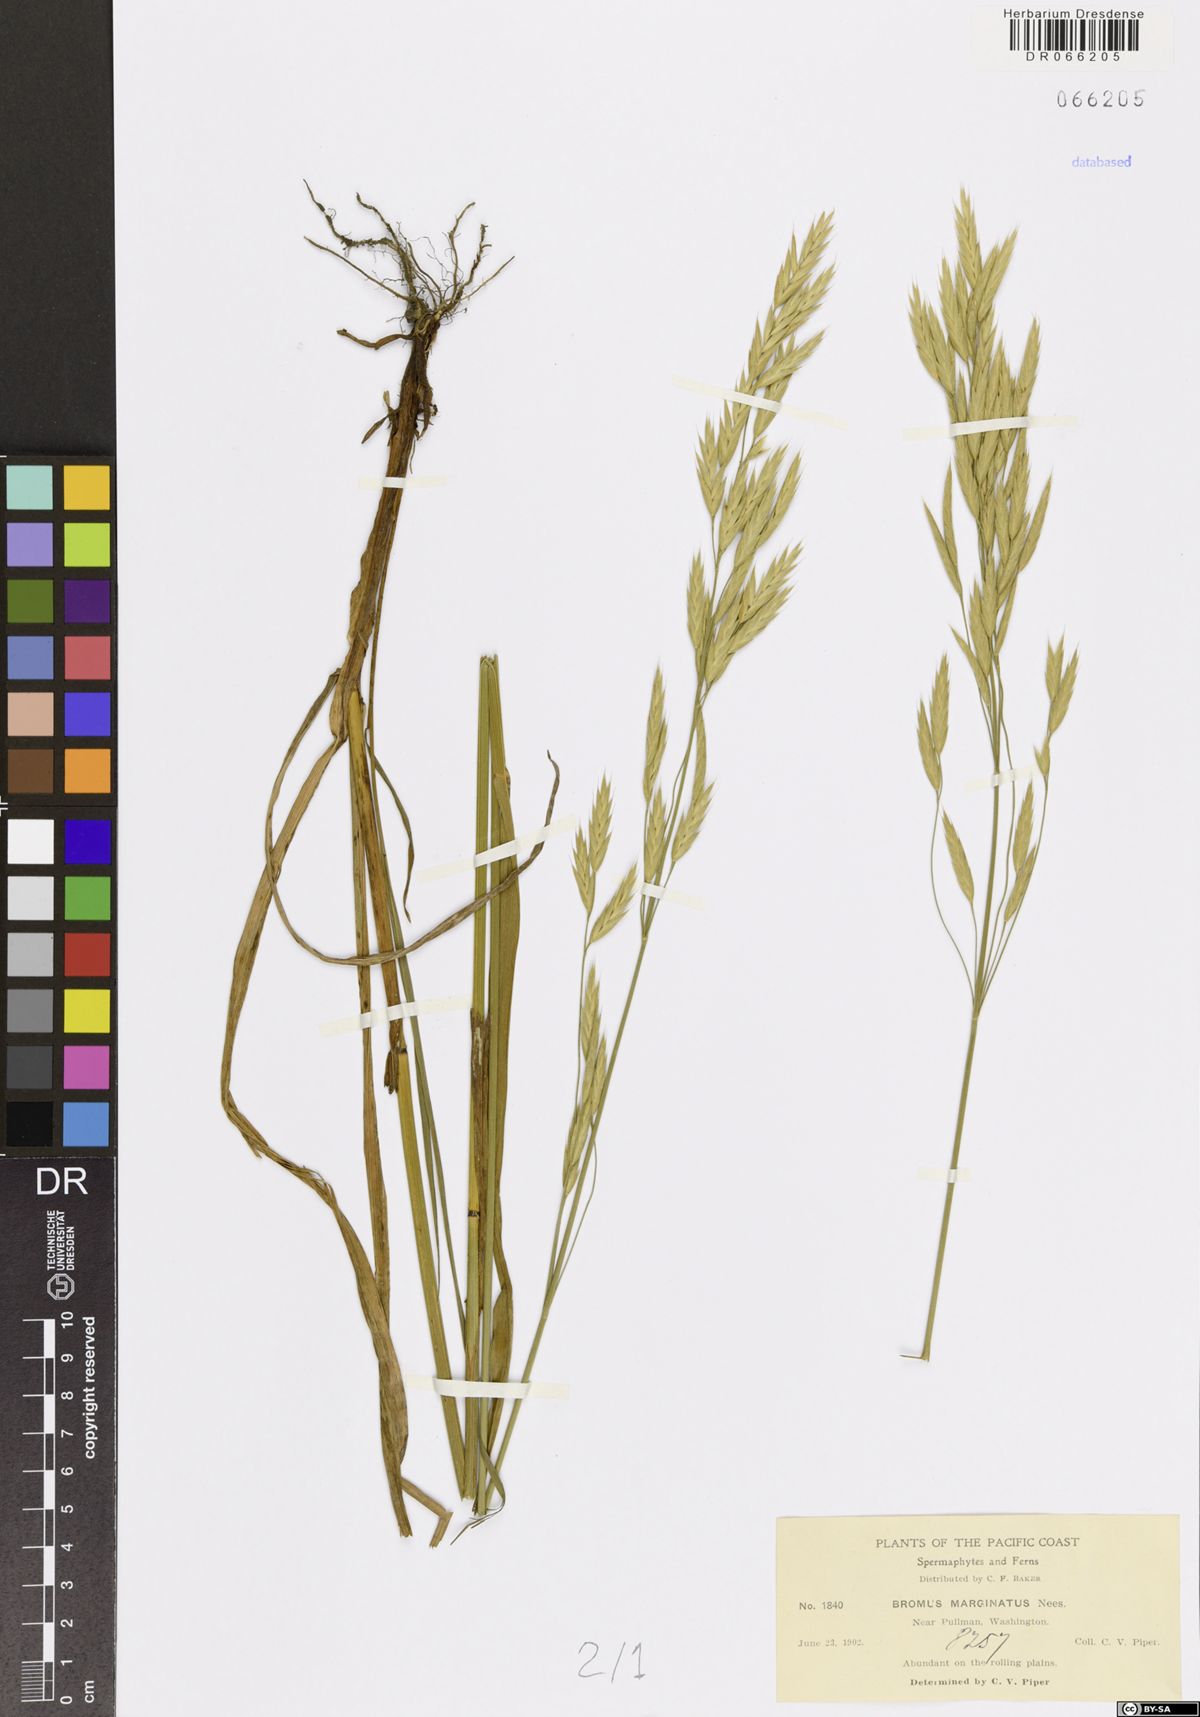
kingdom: Plantae
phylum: Tracheophyta
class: Liliopsida
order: Poales
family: Poaceae
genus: Bromus
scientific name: Bromus marginatus
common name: Western brome
